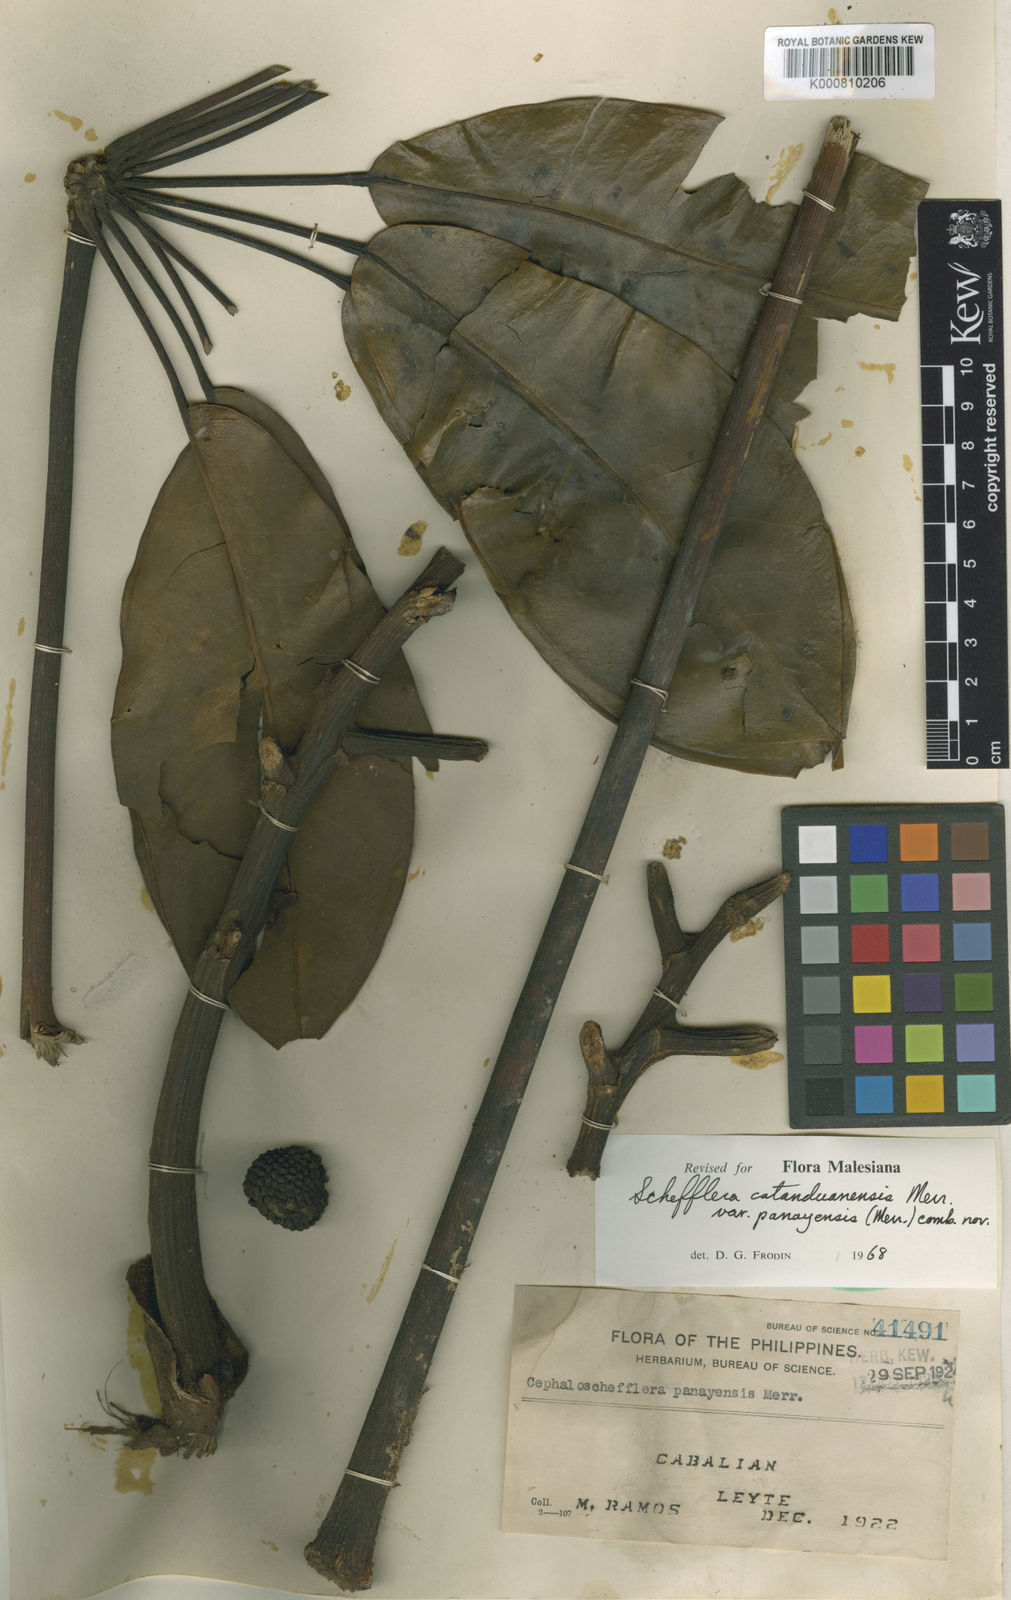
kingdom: Plantae
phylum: Tracheophyta
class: Magnoliopsida
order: Apiales
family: Araliaceae
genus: Heptapleurum
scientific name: Heptapleurum catanduanense
